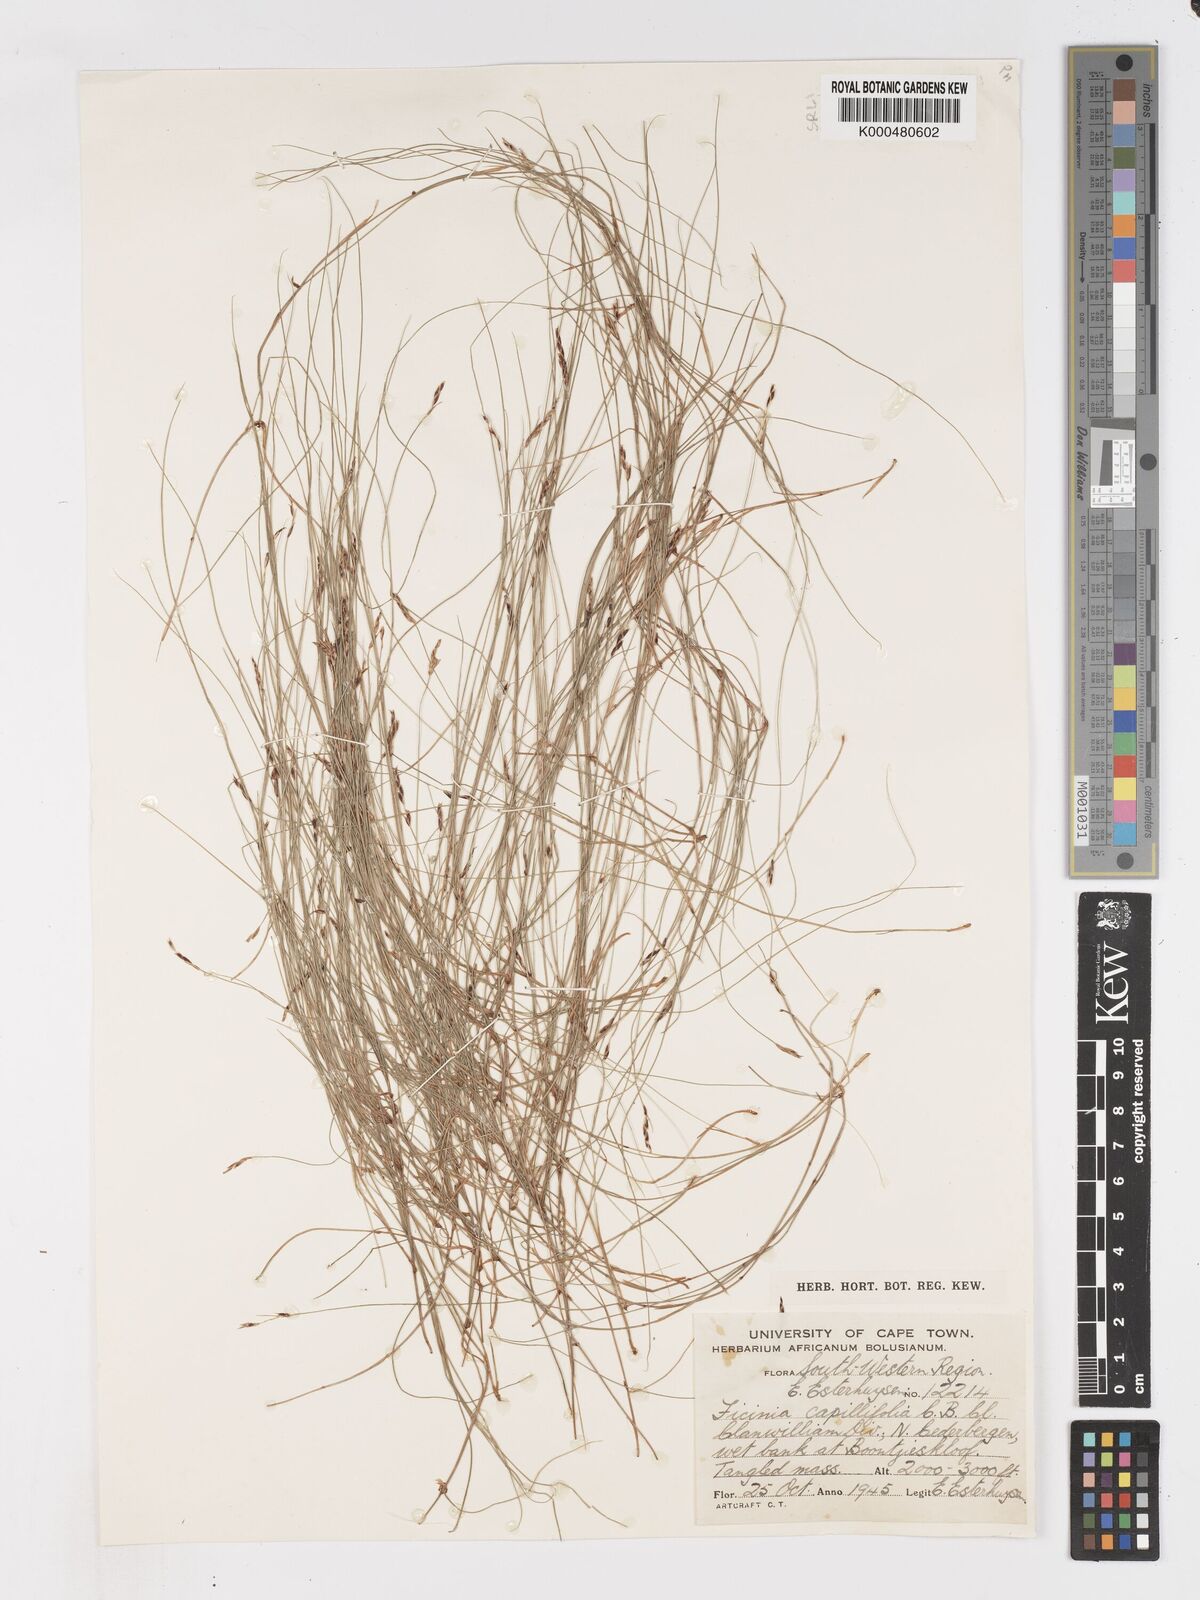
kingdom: Plantae
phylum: Tracheophyta
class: Liliopsida
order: Poales
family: Cyperaceae
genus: Ficinia
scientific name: Ficinia capillifolia
